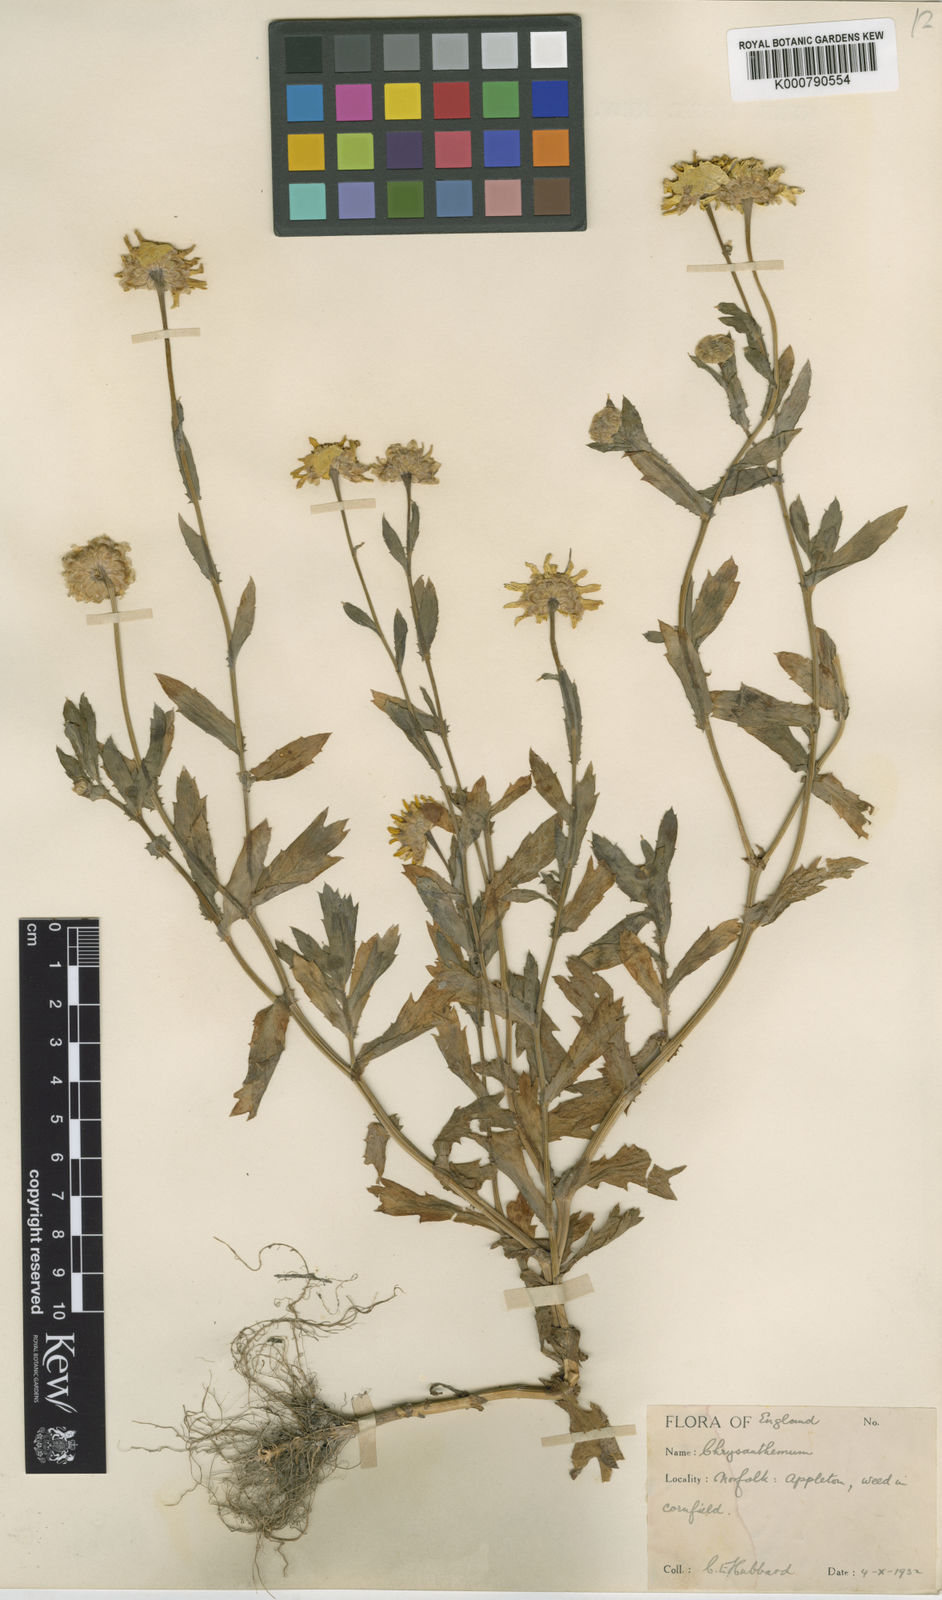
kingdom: Plantae
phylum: Tracheophyta
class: Magnoliopsida
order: Asterales
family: Asteraceae
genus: Glebionis
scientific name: Glebionis
